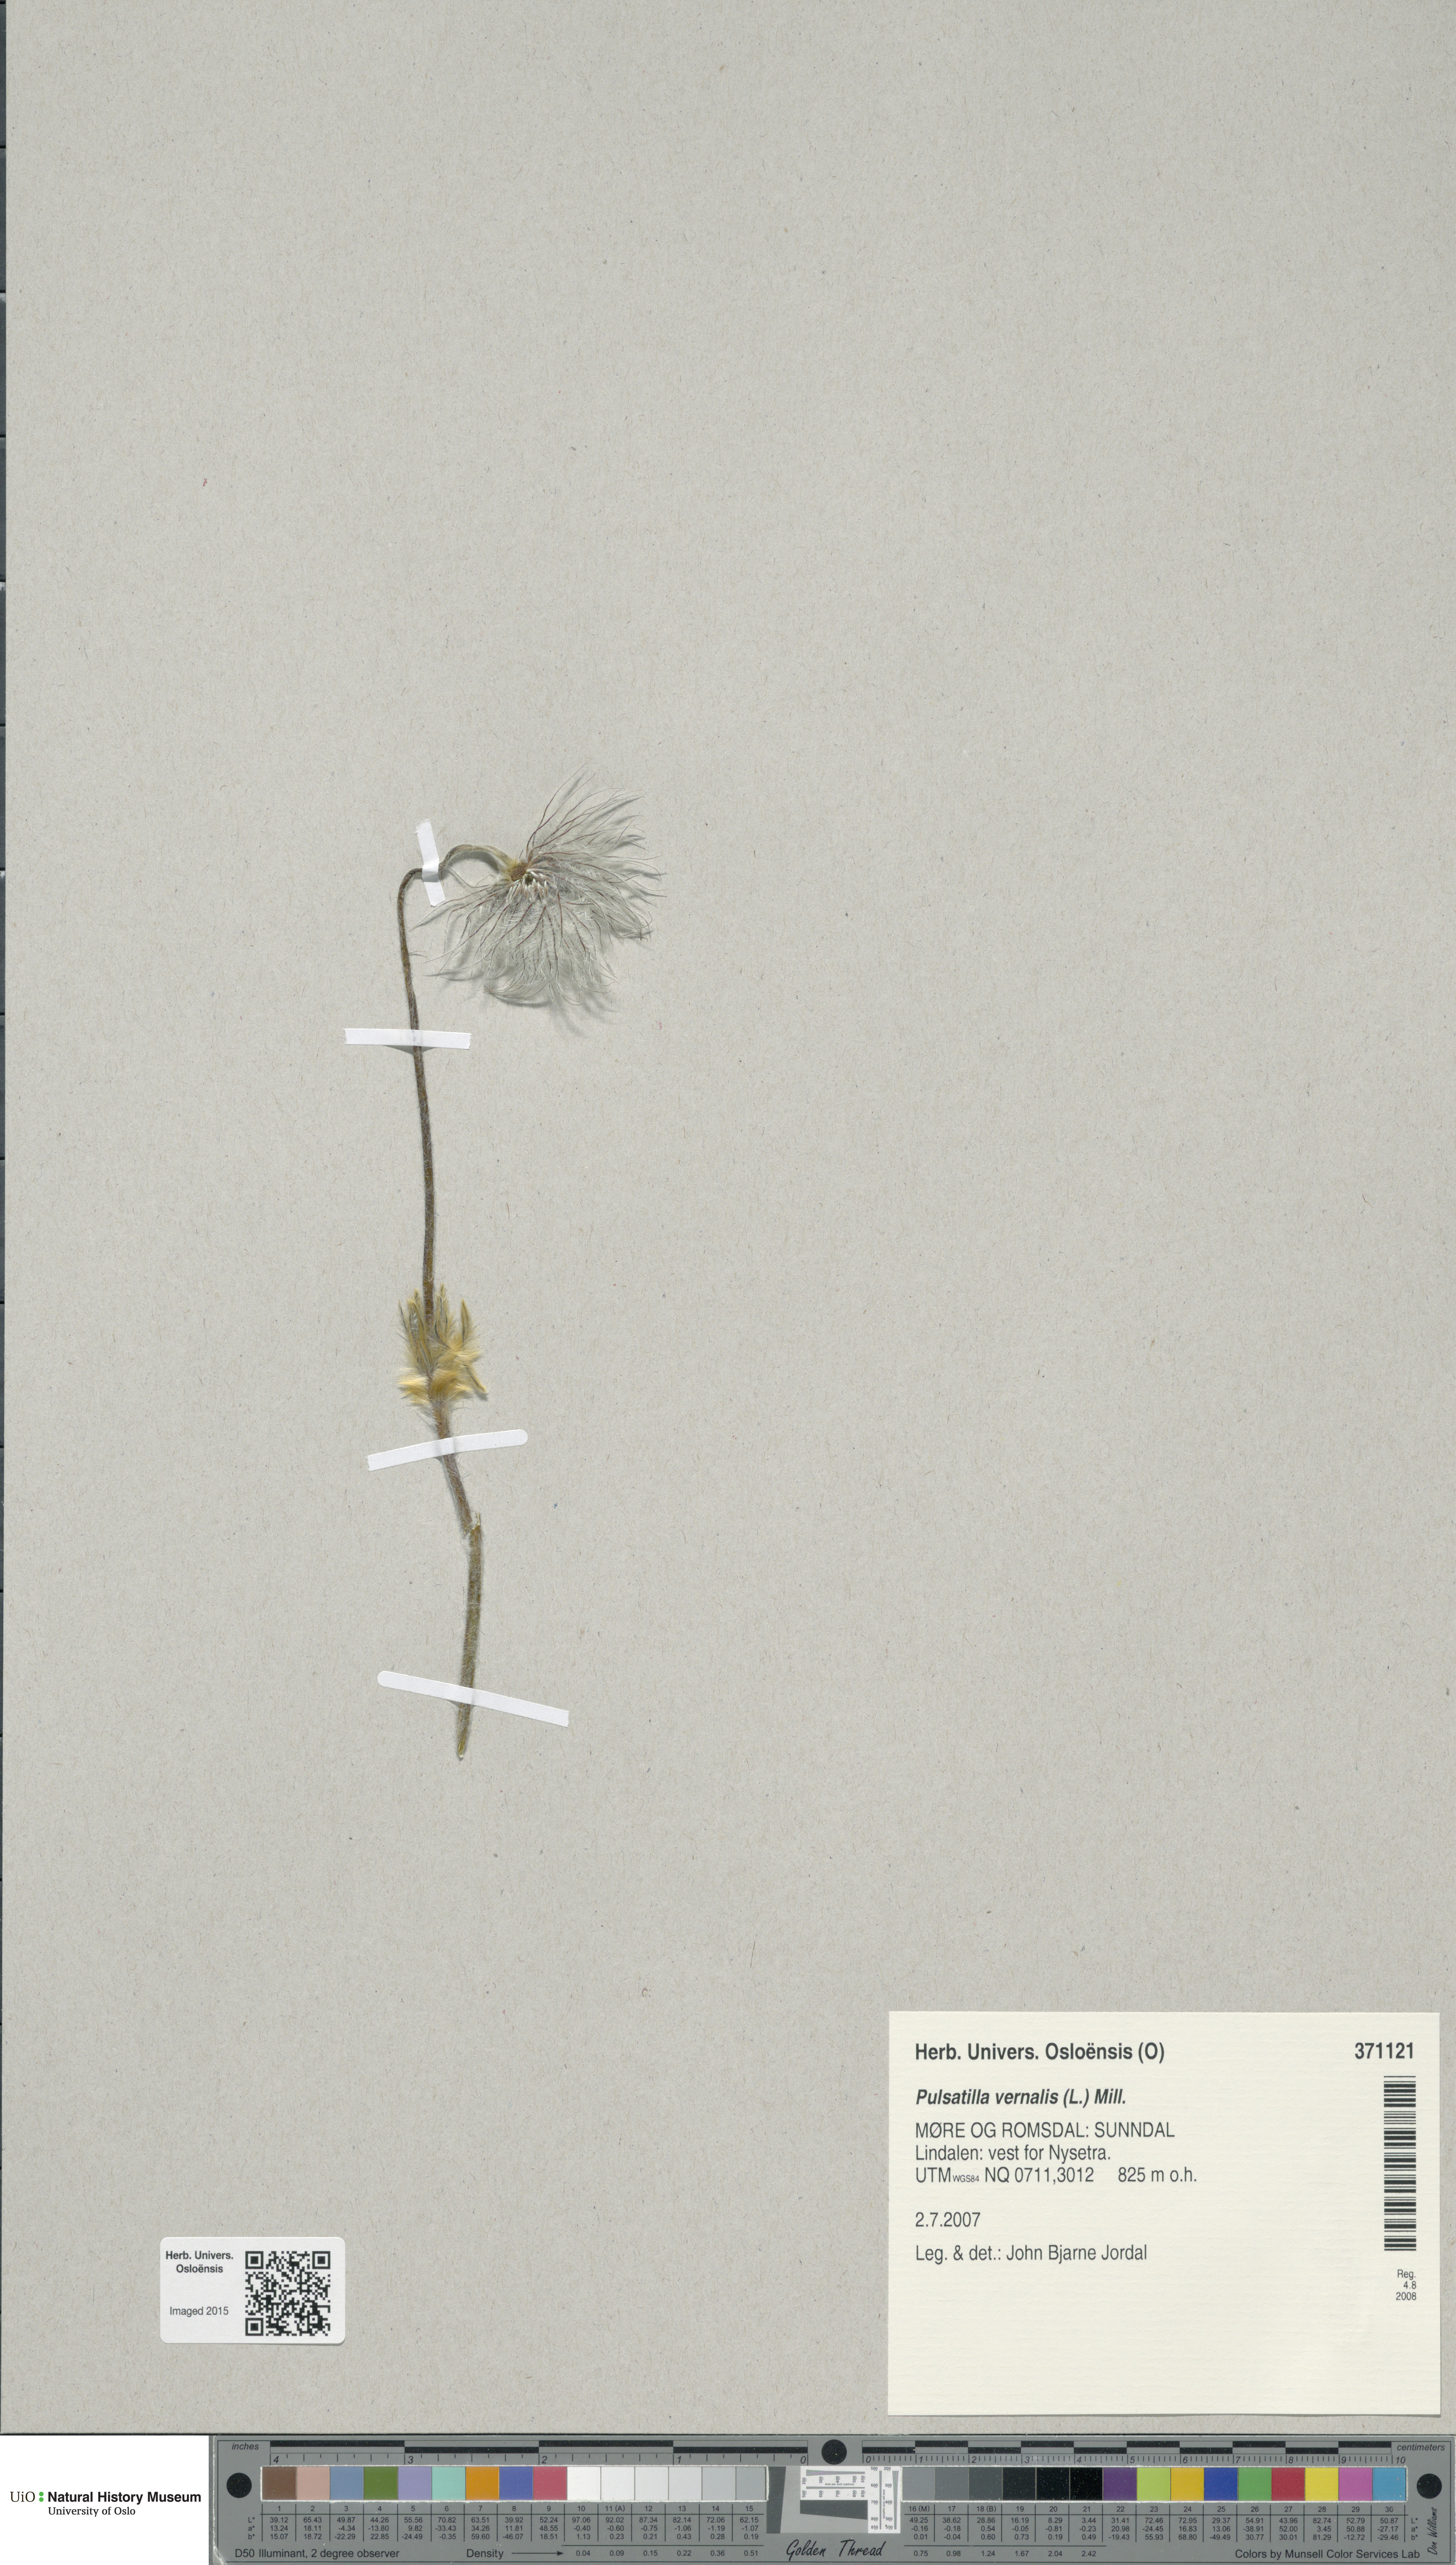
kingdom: Plantae
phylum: Tracheophyta
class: Magnoliopsida
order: Ranunculales
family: Ranunculaceae
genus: Pulsatilla
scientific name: Pulsatilla vernalis
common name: Spring pasque flower
